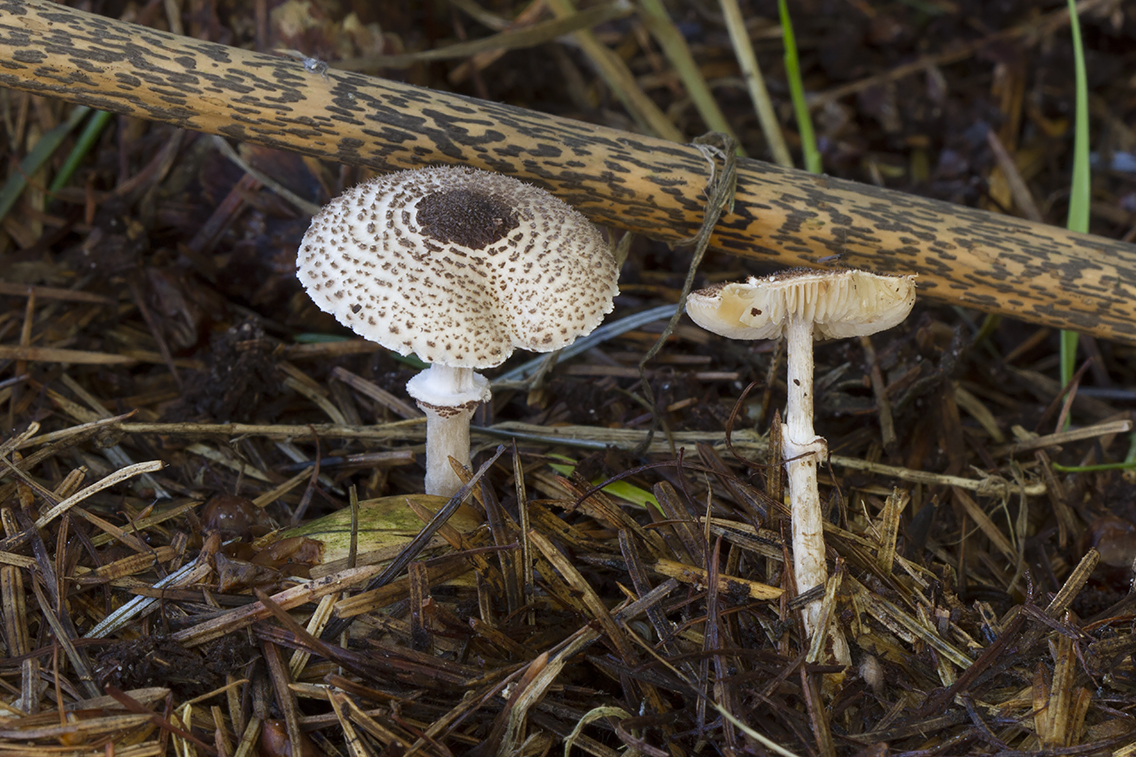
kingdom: Fungi
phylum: Basidiomycota
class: Agaricomycetes
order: Agaricales
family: Agaricaceae
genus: Lepiota
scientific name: Lepiota felina
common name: sortskællet parasolhat
